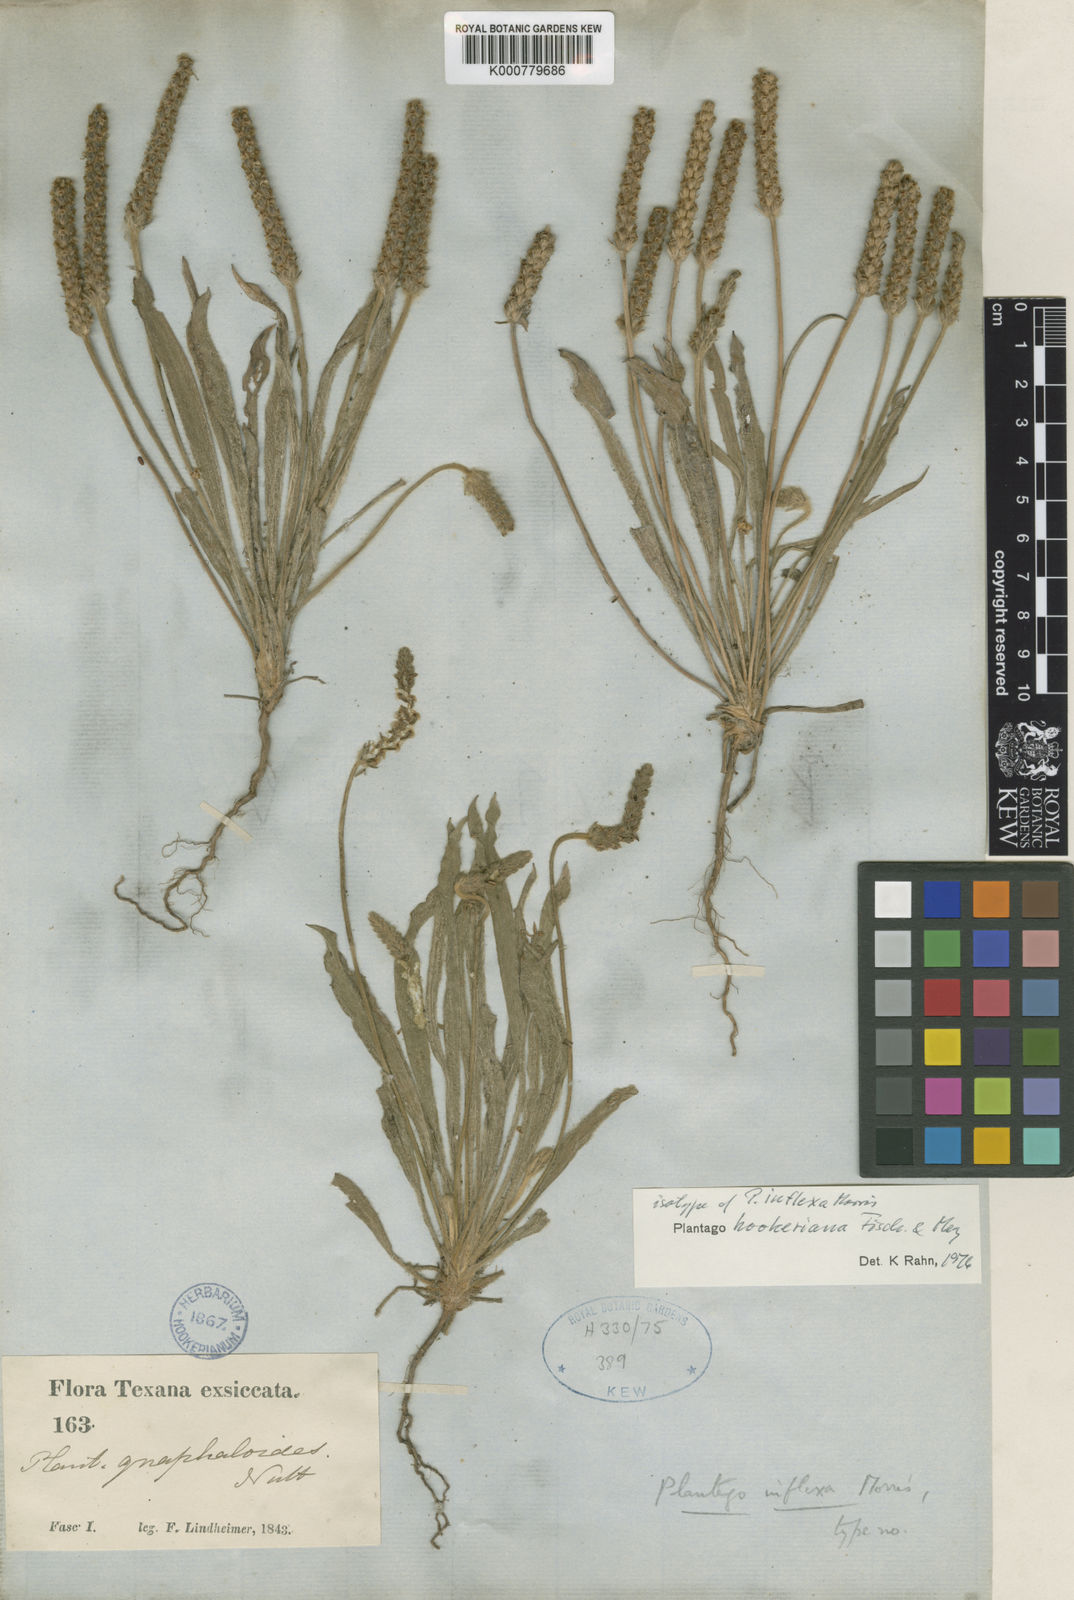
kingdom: Plantae
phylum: Tracheophyta
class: Magnoliopsida
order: Lamiales
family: Plantaginaceae
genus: Plantago
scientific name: Plantago hookeriana
